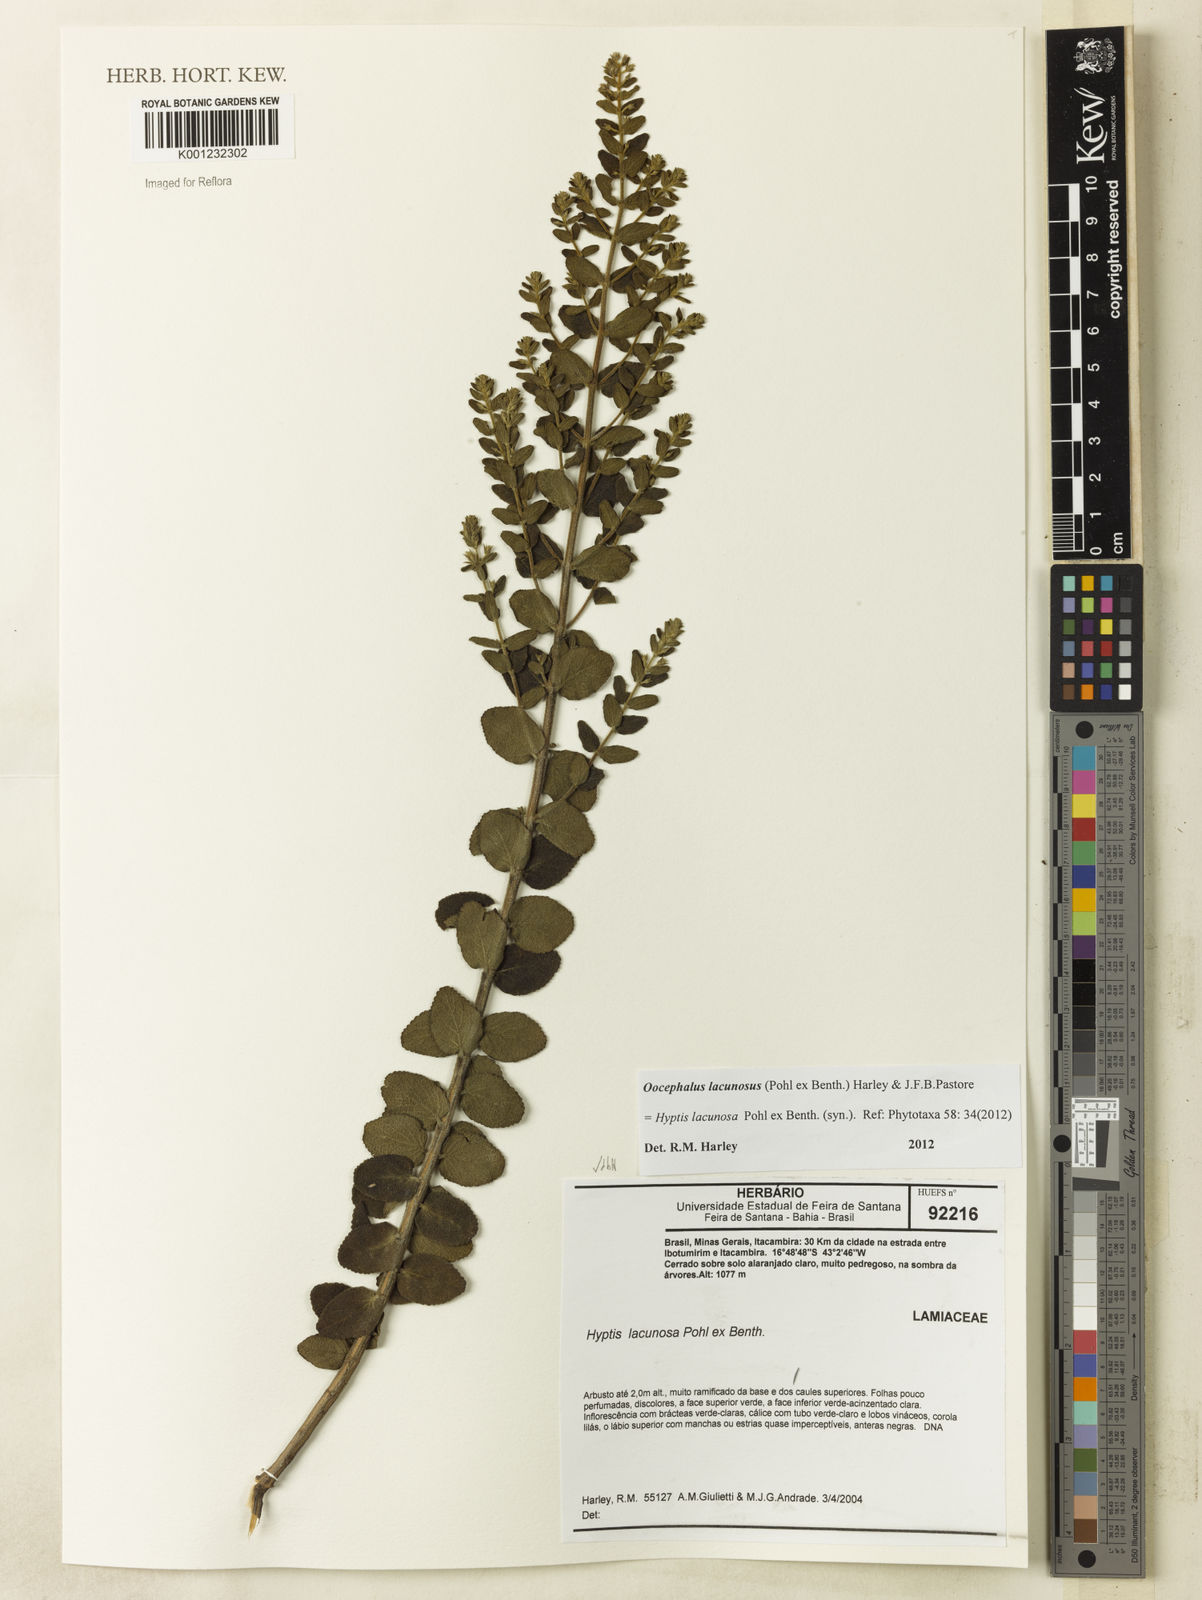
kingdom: Plantae
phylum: Tracheophyta
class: Magnoliopsida
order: Lamiales
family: Lamiaceae
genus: Oocephalus
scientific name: Oocephalus lacunosus
